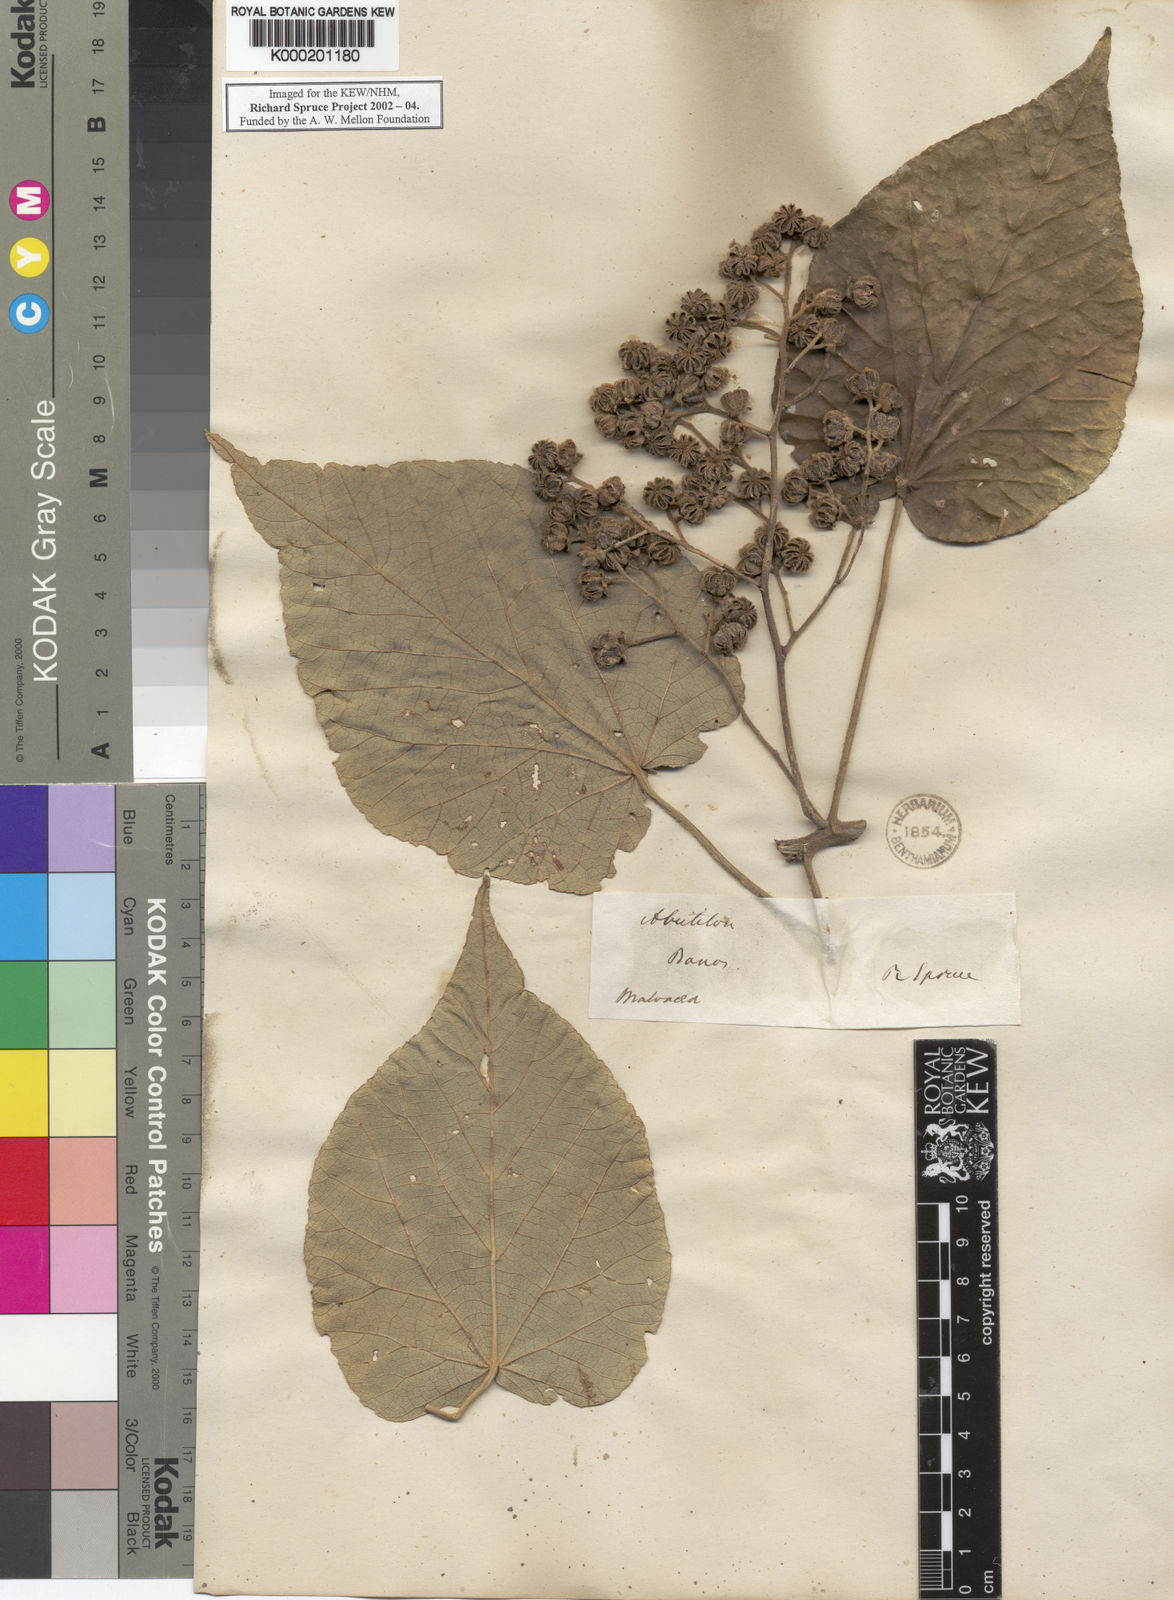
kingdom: Plantae
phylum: Tracheophyta
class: Magnoliopsida
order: Malvales
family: Malvaceae
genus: Abutilon
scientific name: Abutilon
